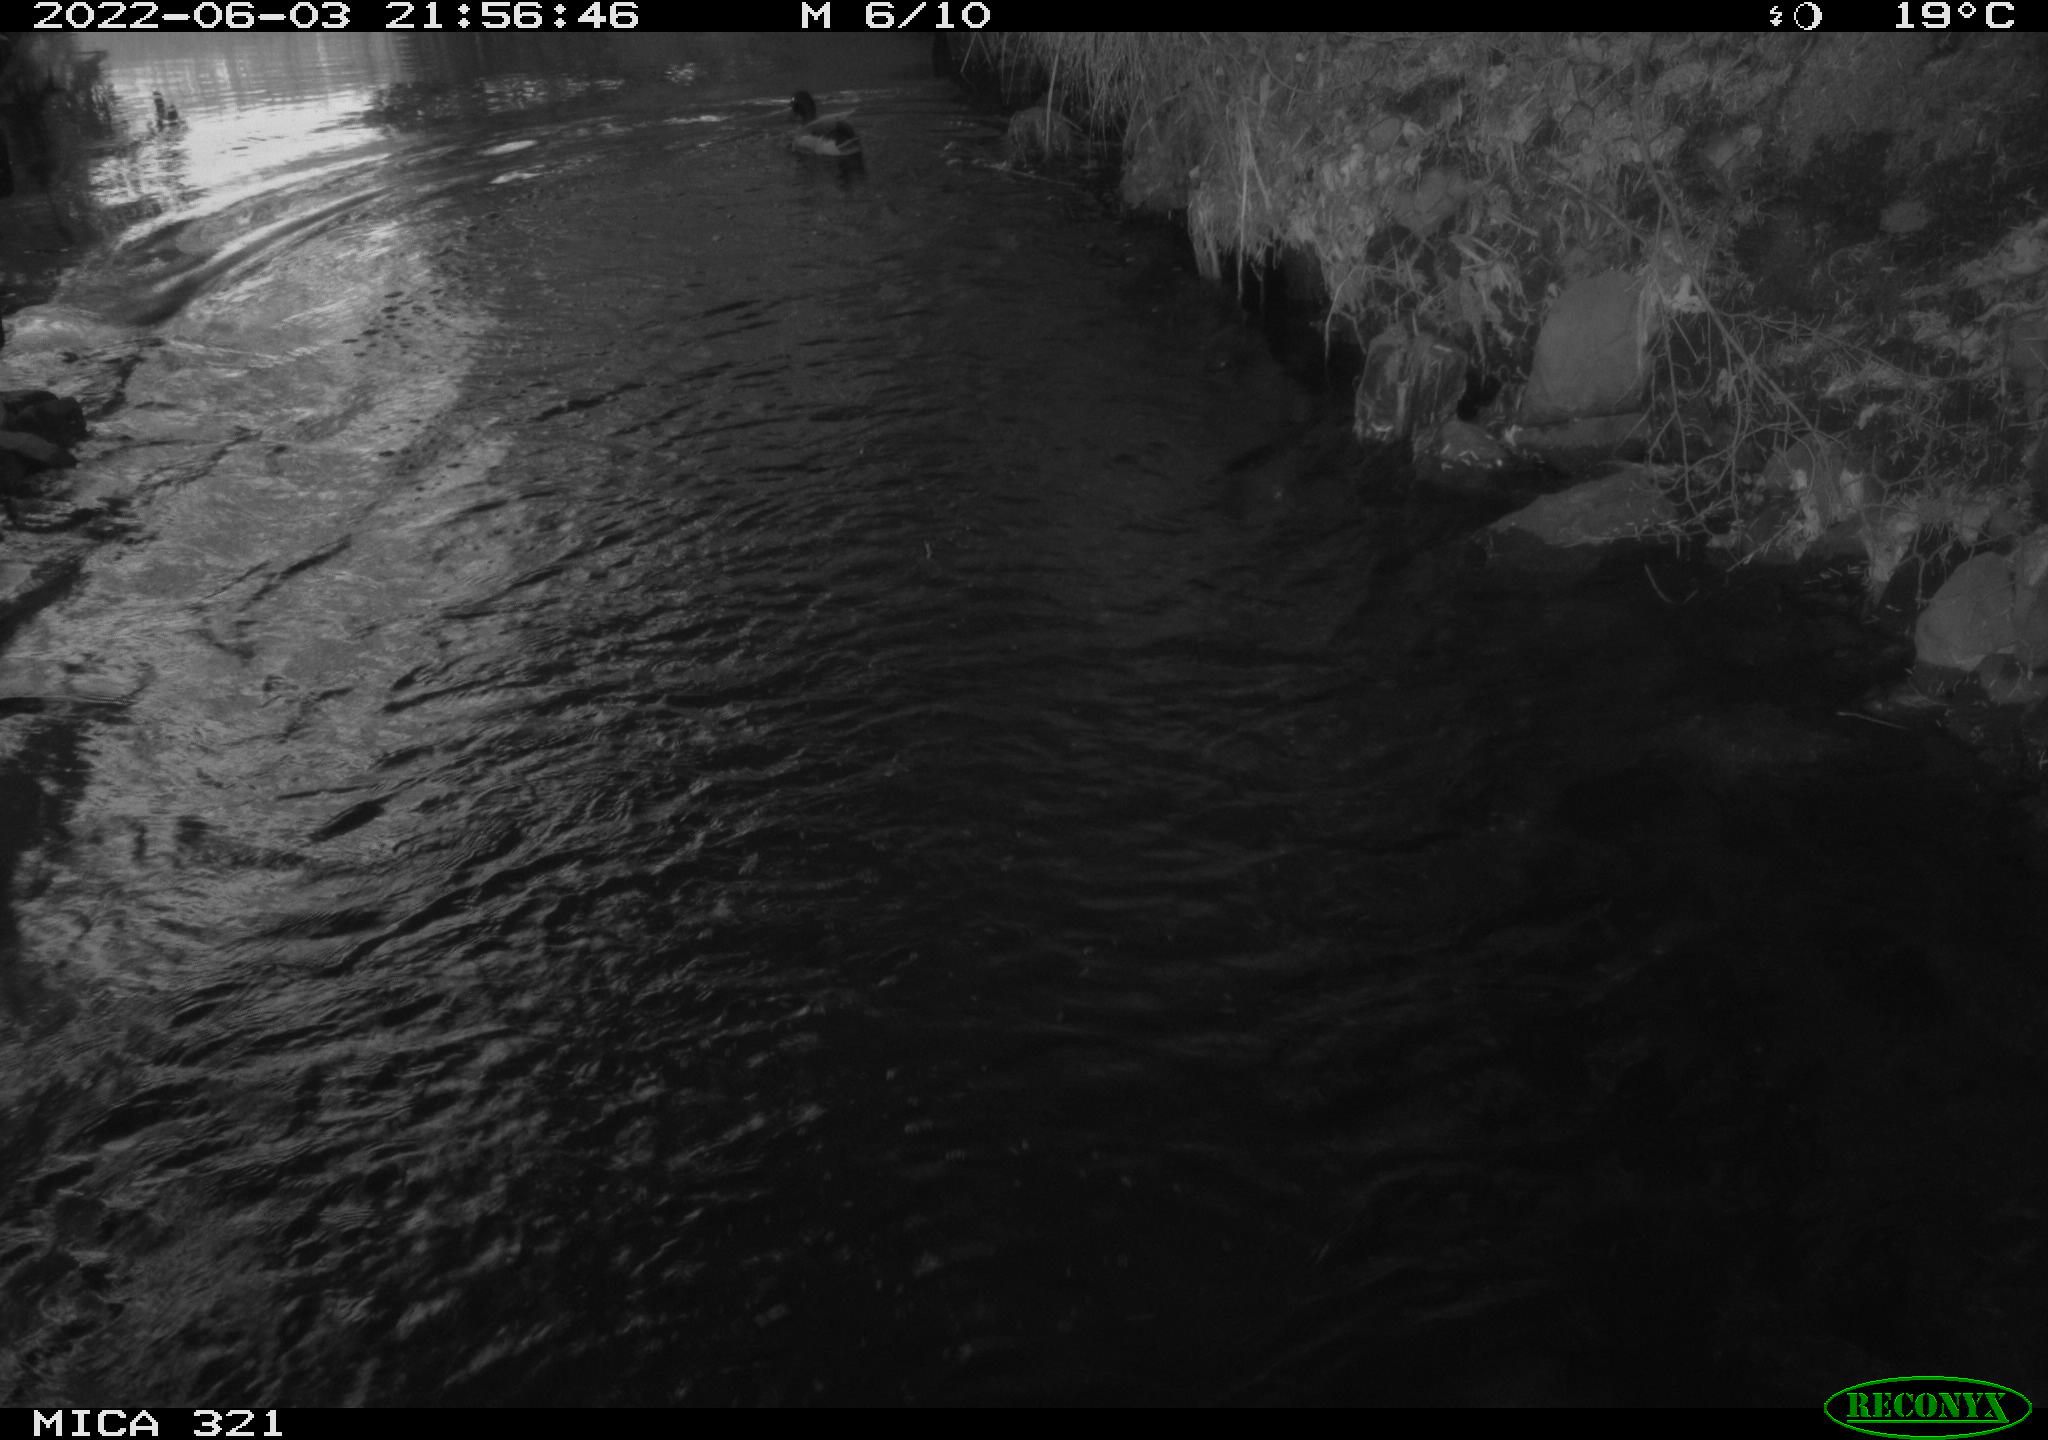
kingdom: Animalia
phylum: Chordata
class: Aves
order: Anseriformes
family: Anatidae
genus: Anas
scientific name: Anas platyrhynchos
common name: Mallard
